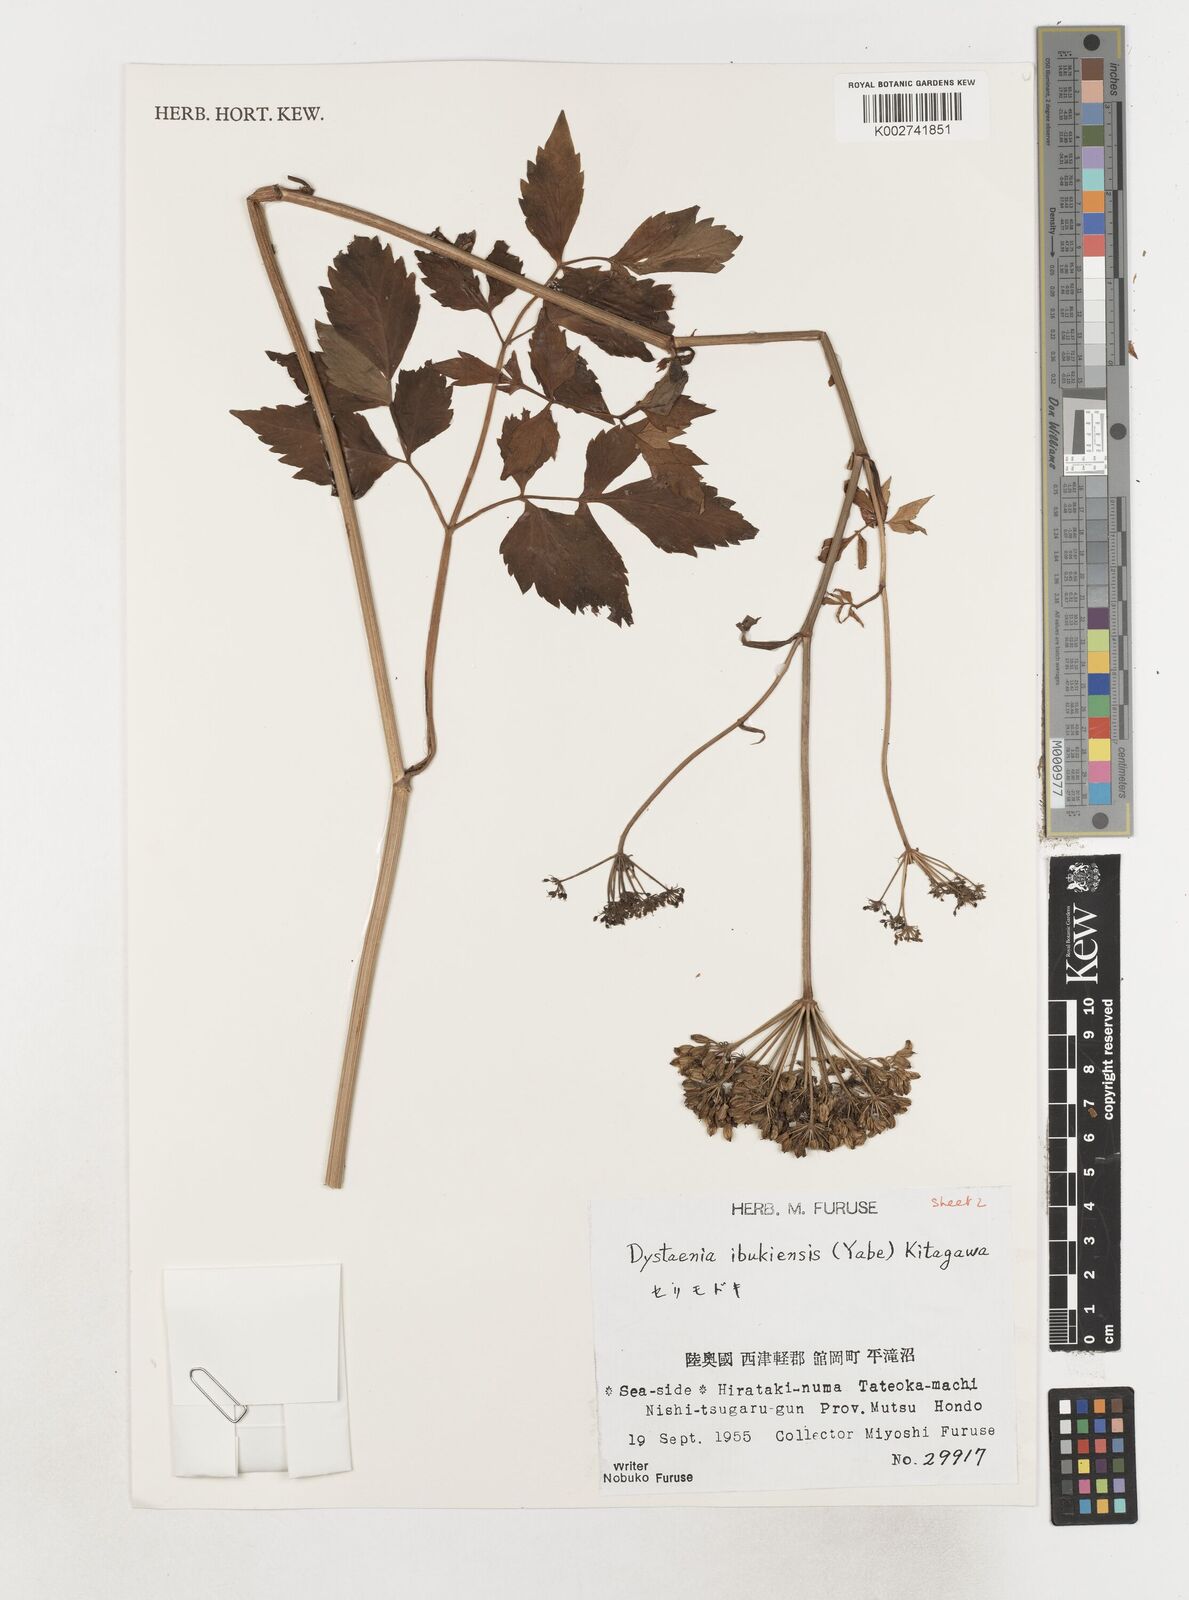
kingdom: Plantae
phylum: Tracheophyta
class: Magnoliopsida
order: Apiales
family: Apiaceae
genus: Dystaenia
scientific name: Dystaenia ibukiensis
